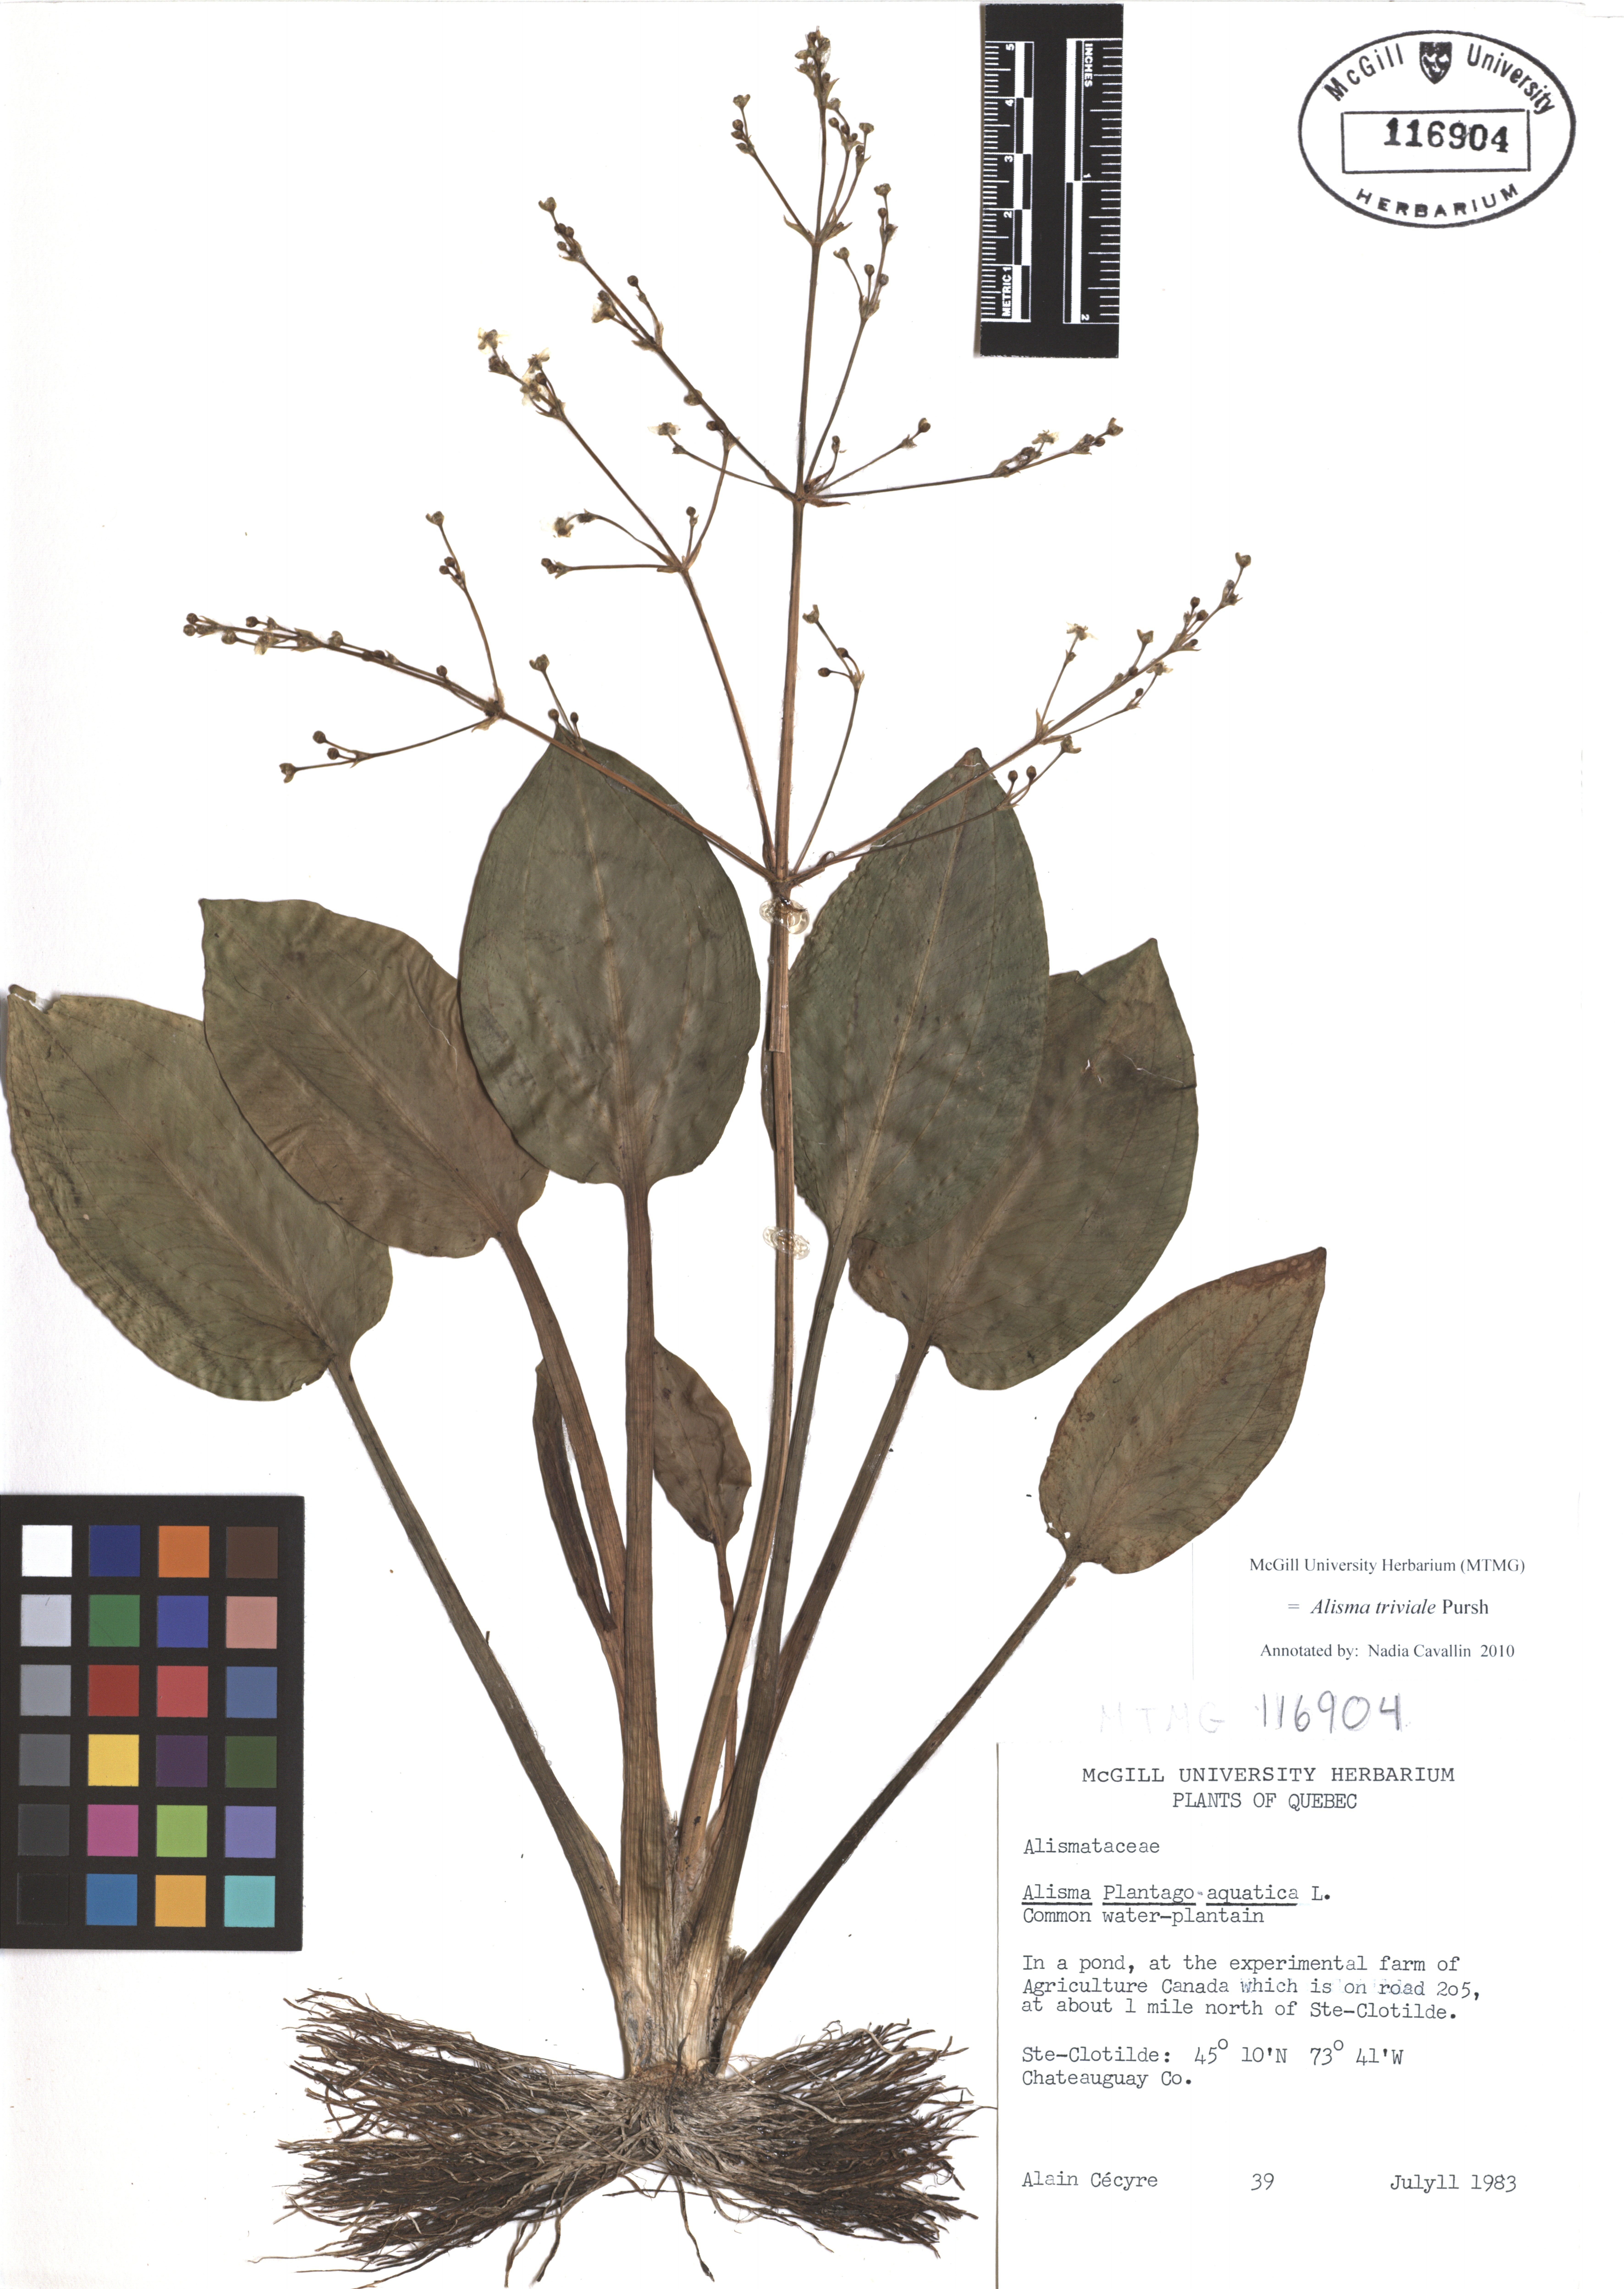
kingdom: Plantae
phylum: Tracheophyta
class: Liliopsida
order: Alismatales
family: Alismataceae
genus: Alisma
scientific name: Alisma triviale
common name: Northern water-plantain
